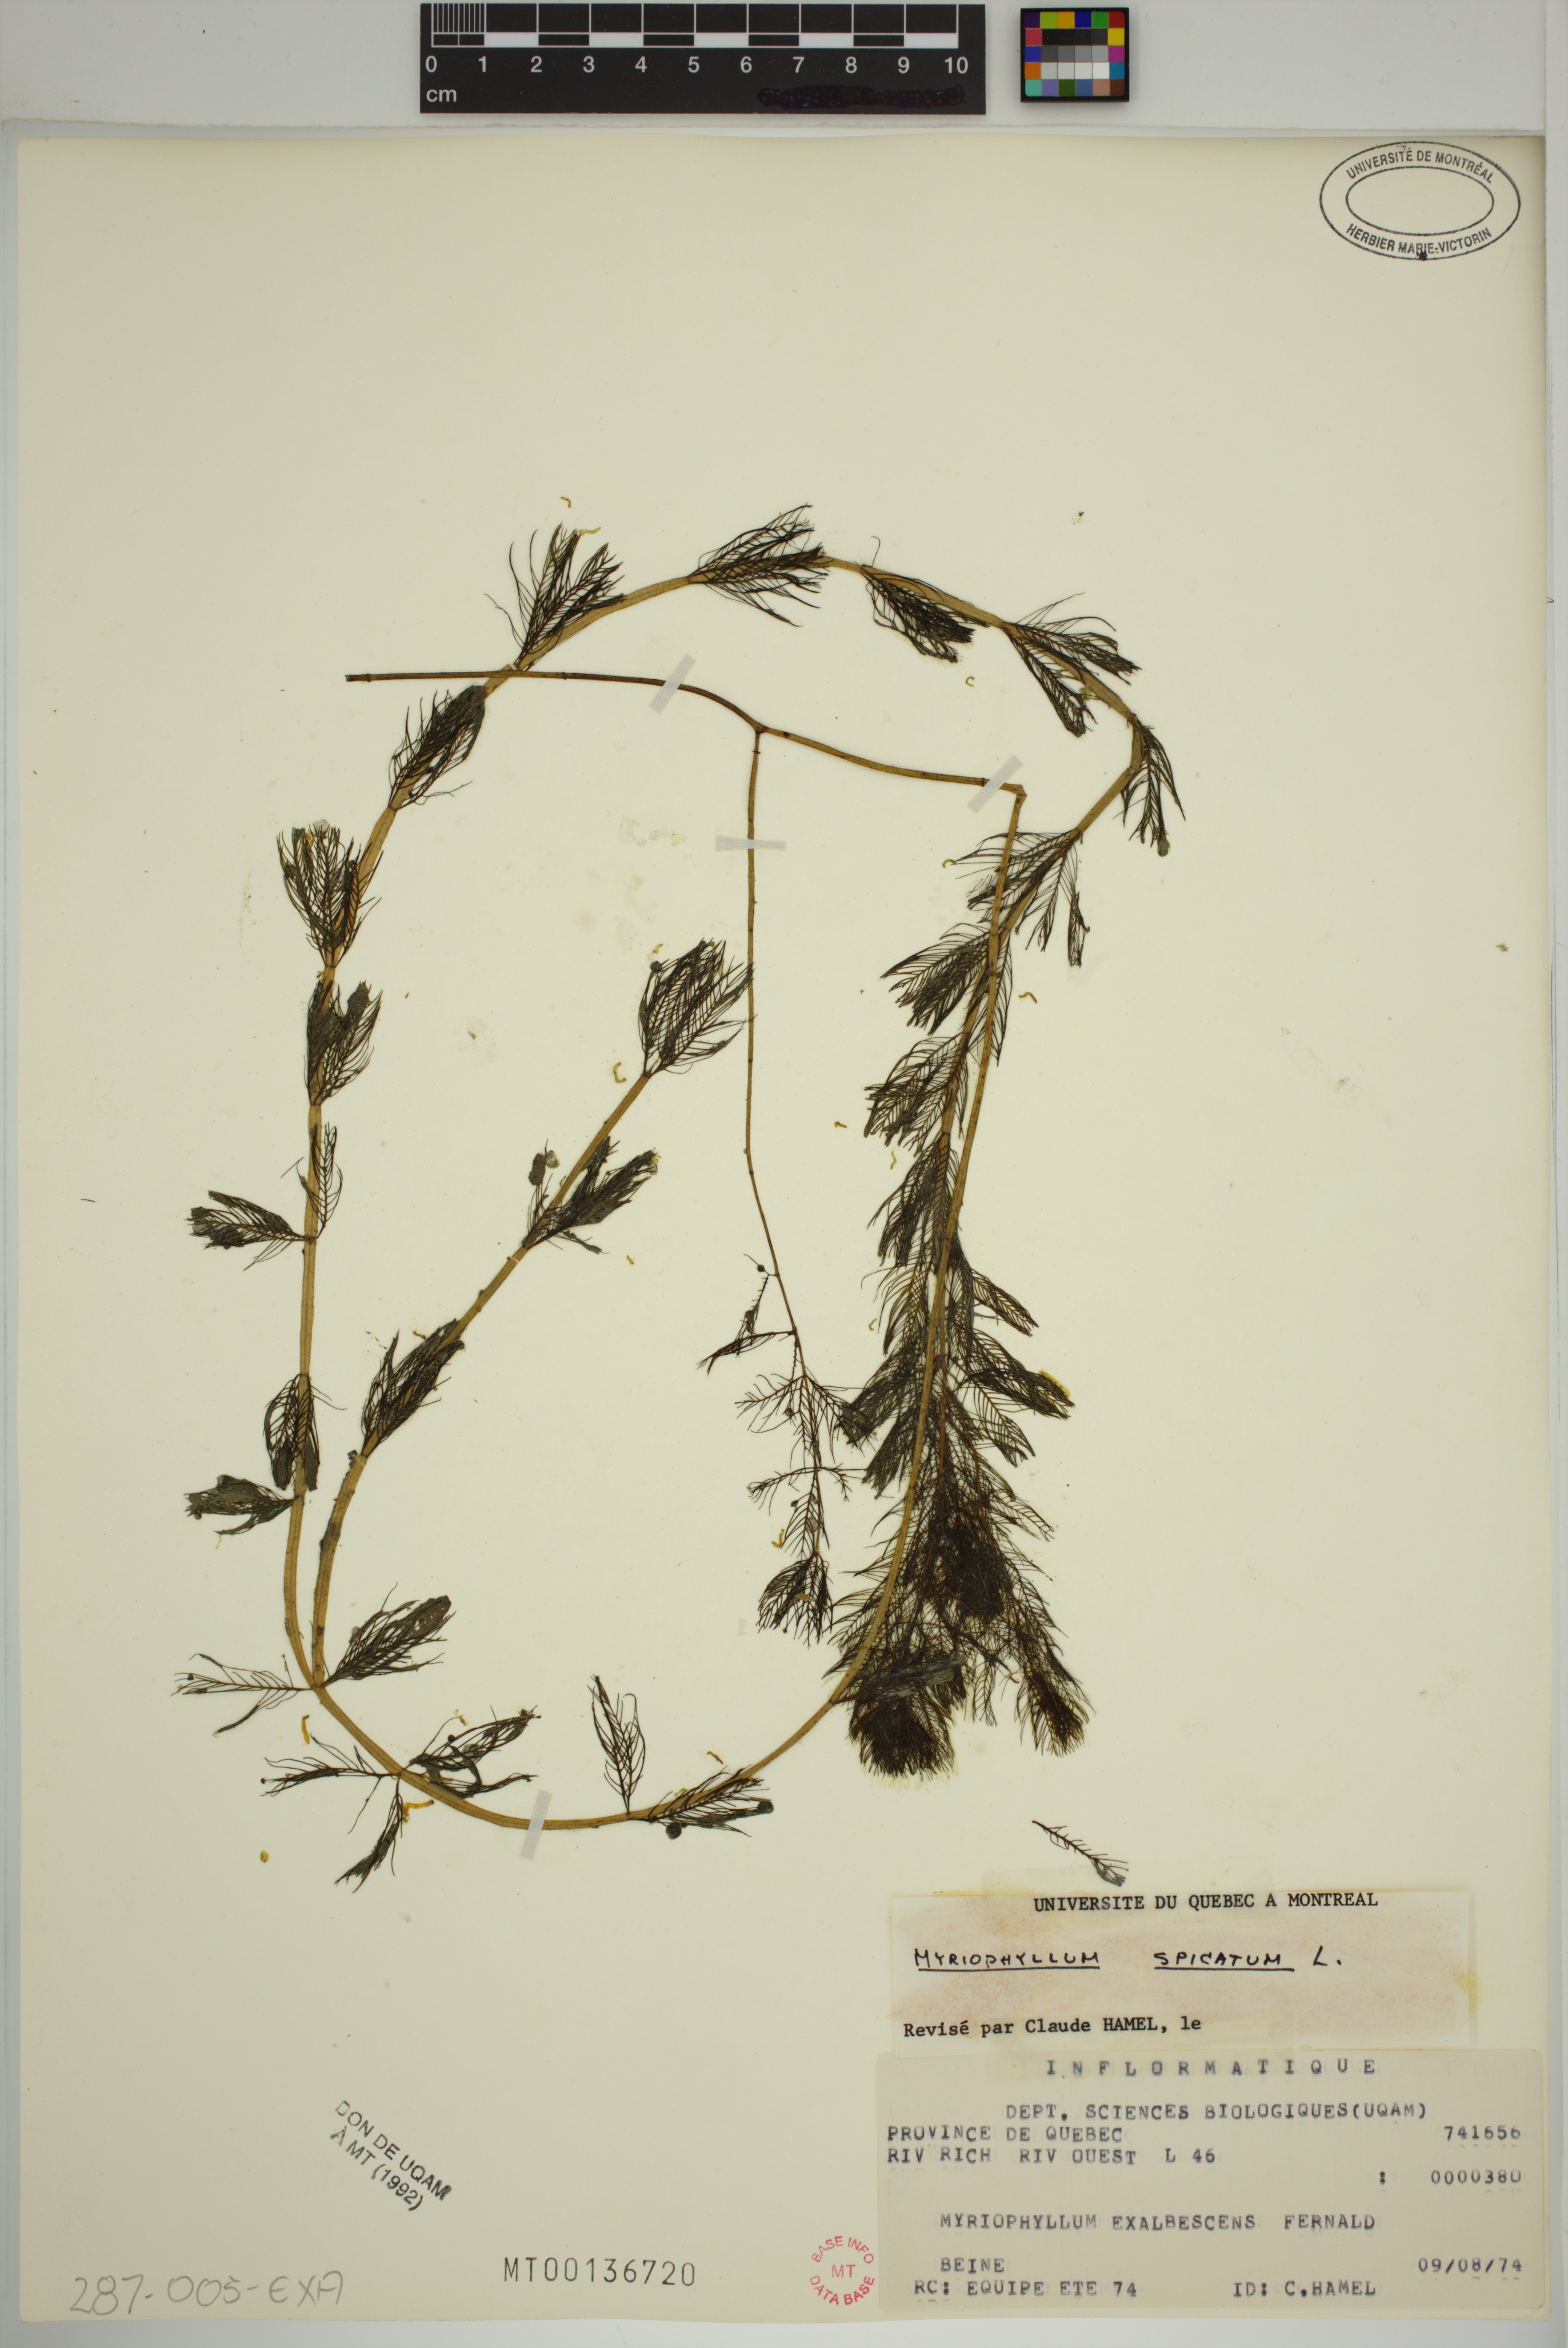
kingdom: Plantae
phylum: Tracheophyta
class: Magnoliopsida
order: Saxifragales
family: Haloragaceae
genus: Myriophyllum
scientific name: Myriophyllum spicatum
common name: Spiked water-milfoil
